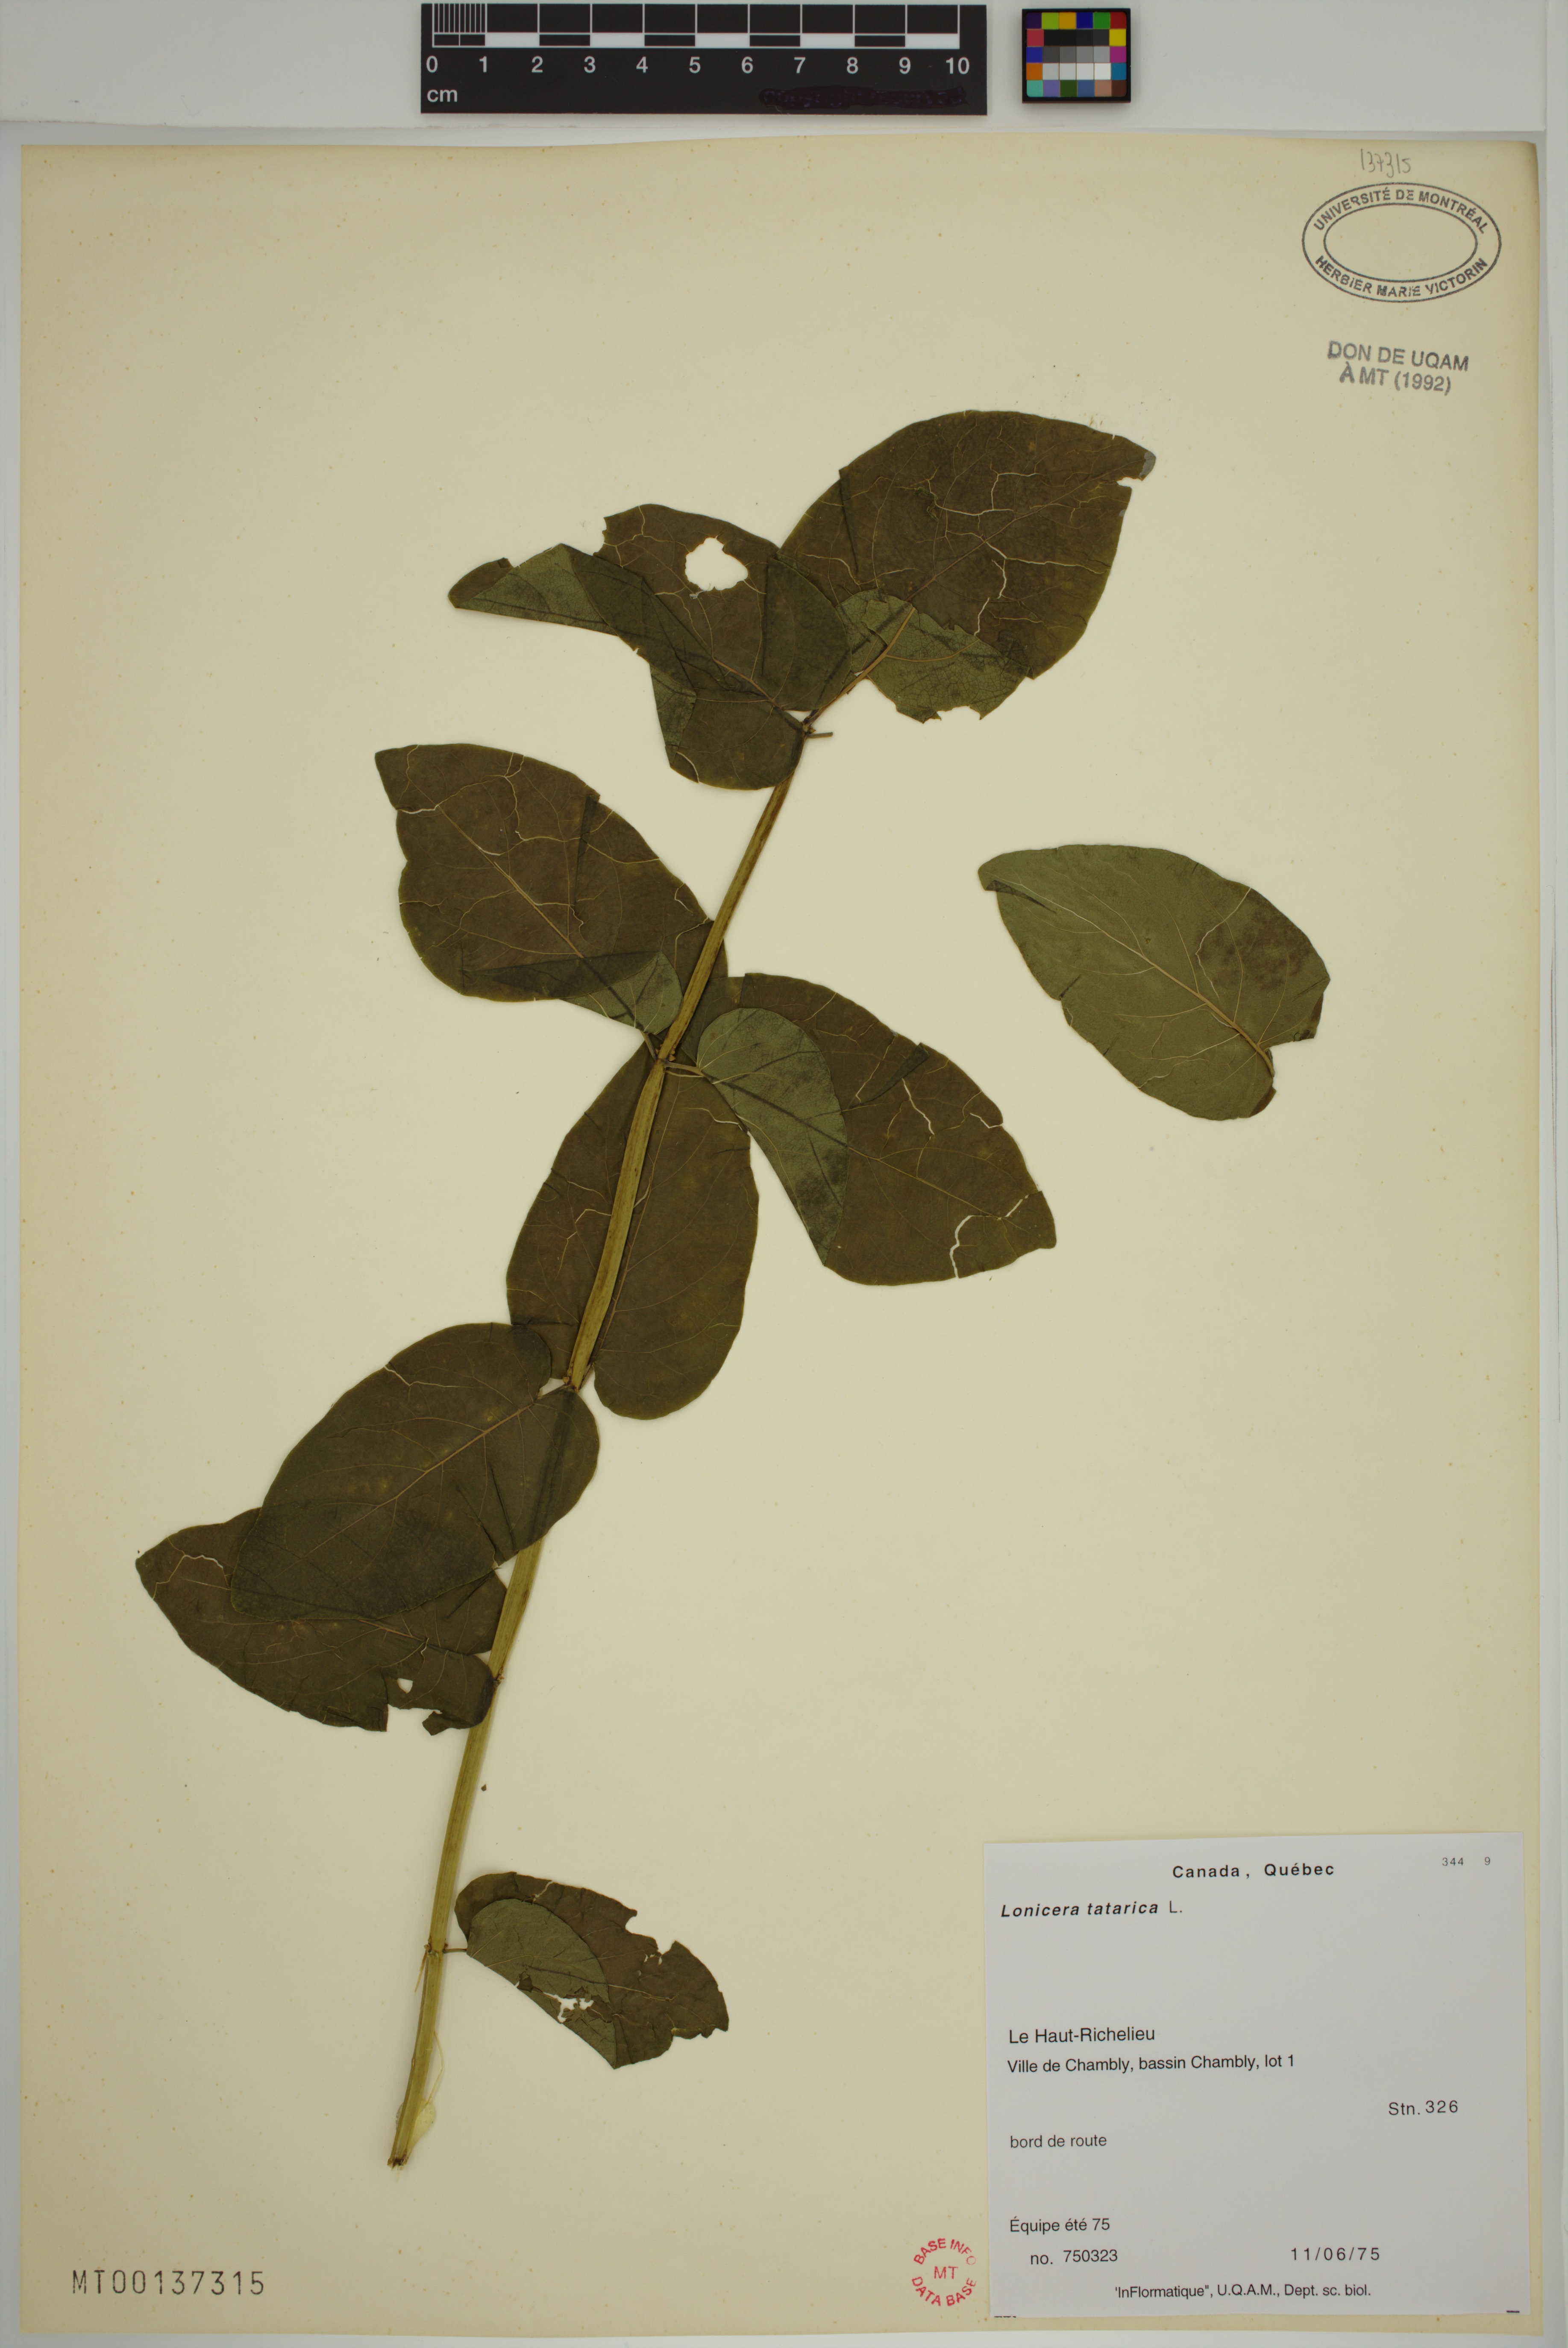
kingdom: Plantae
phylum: Tracheophyta
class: Magnoliopsida
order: Dipsacales
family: Caprifoliaceae
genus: Lonicera
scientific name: Lonicera tatarica
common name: Tatarian honeysuckle
